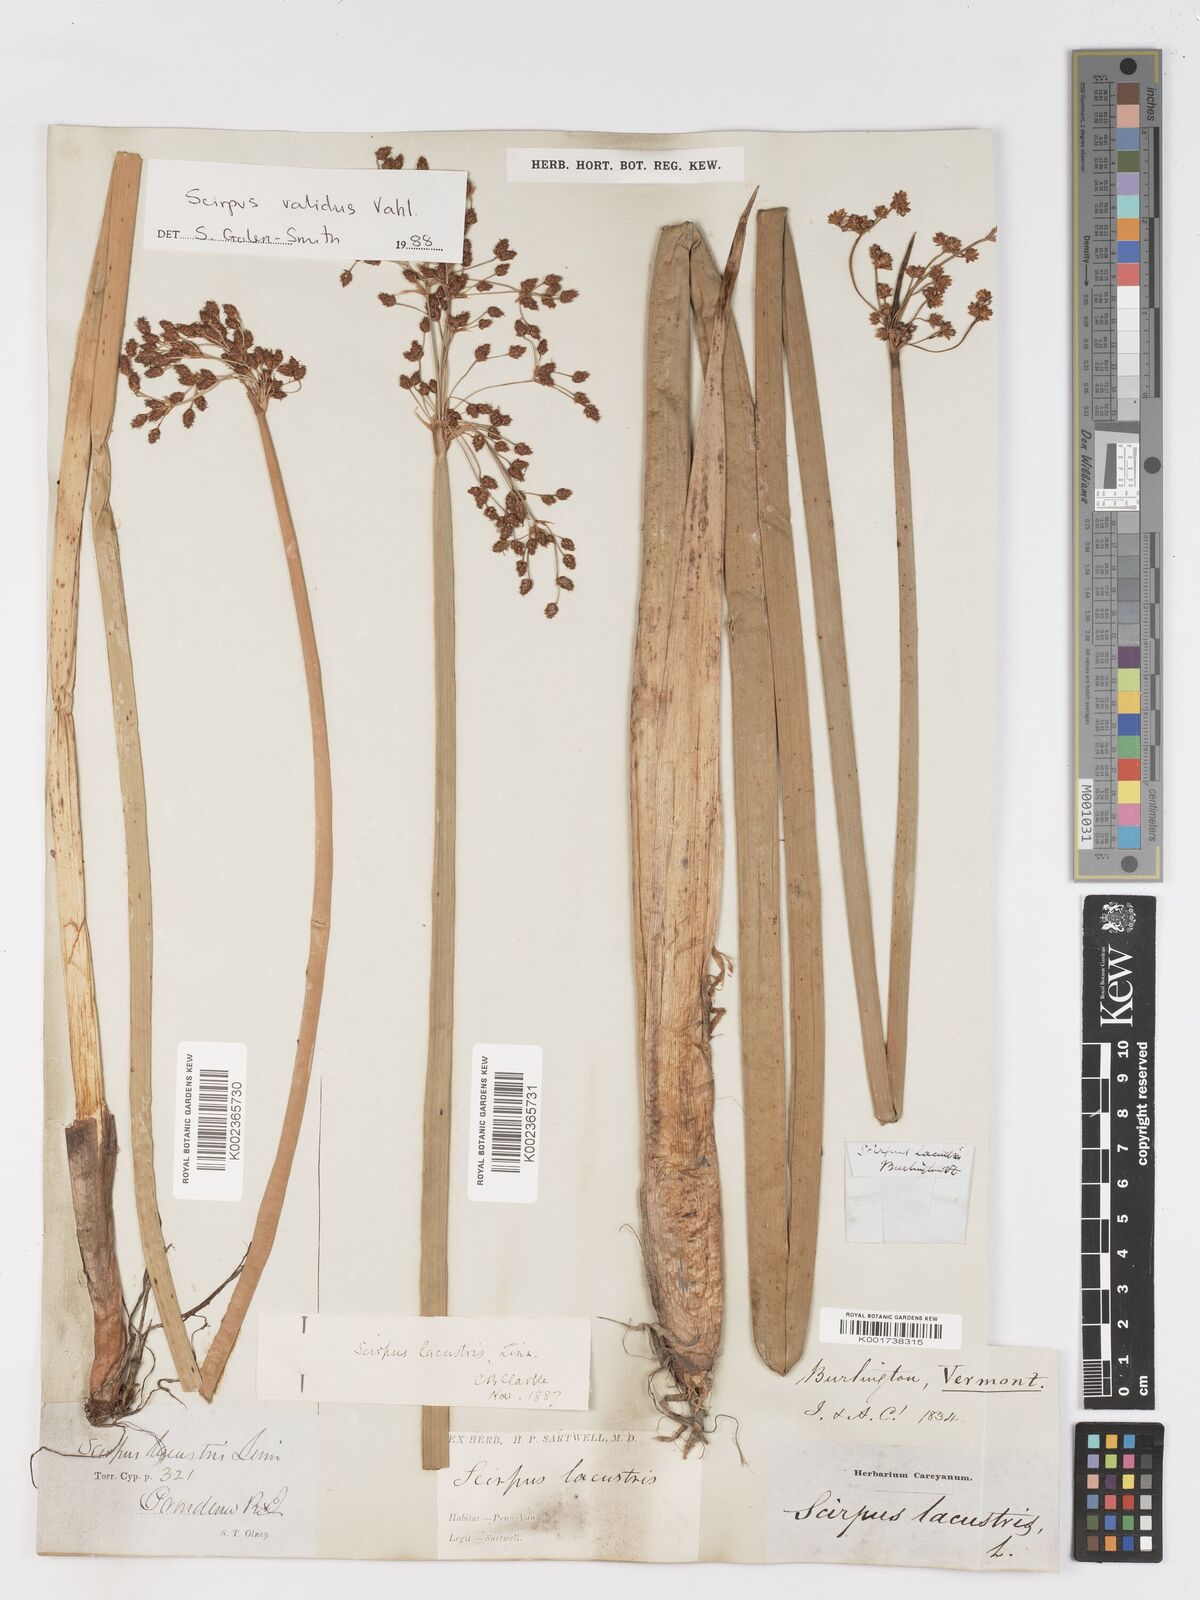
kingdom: Plantae
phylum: Tracheophyta
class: Liliopsida
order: Poales
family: Cyperaceae
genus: Schoenoplectus
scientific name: Schoenoplectus lacustris
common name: Common club-rush
